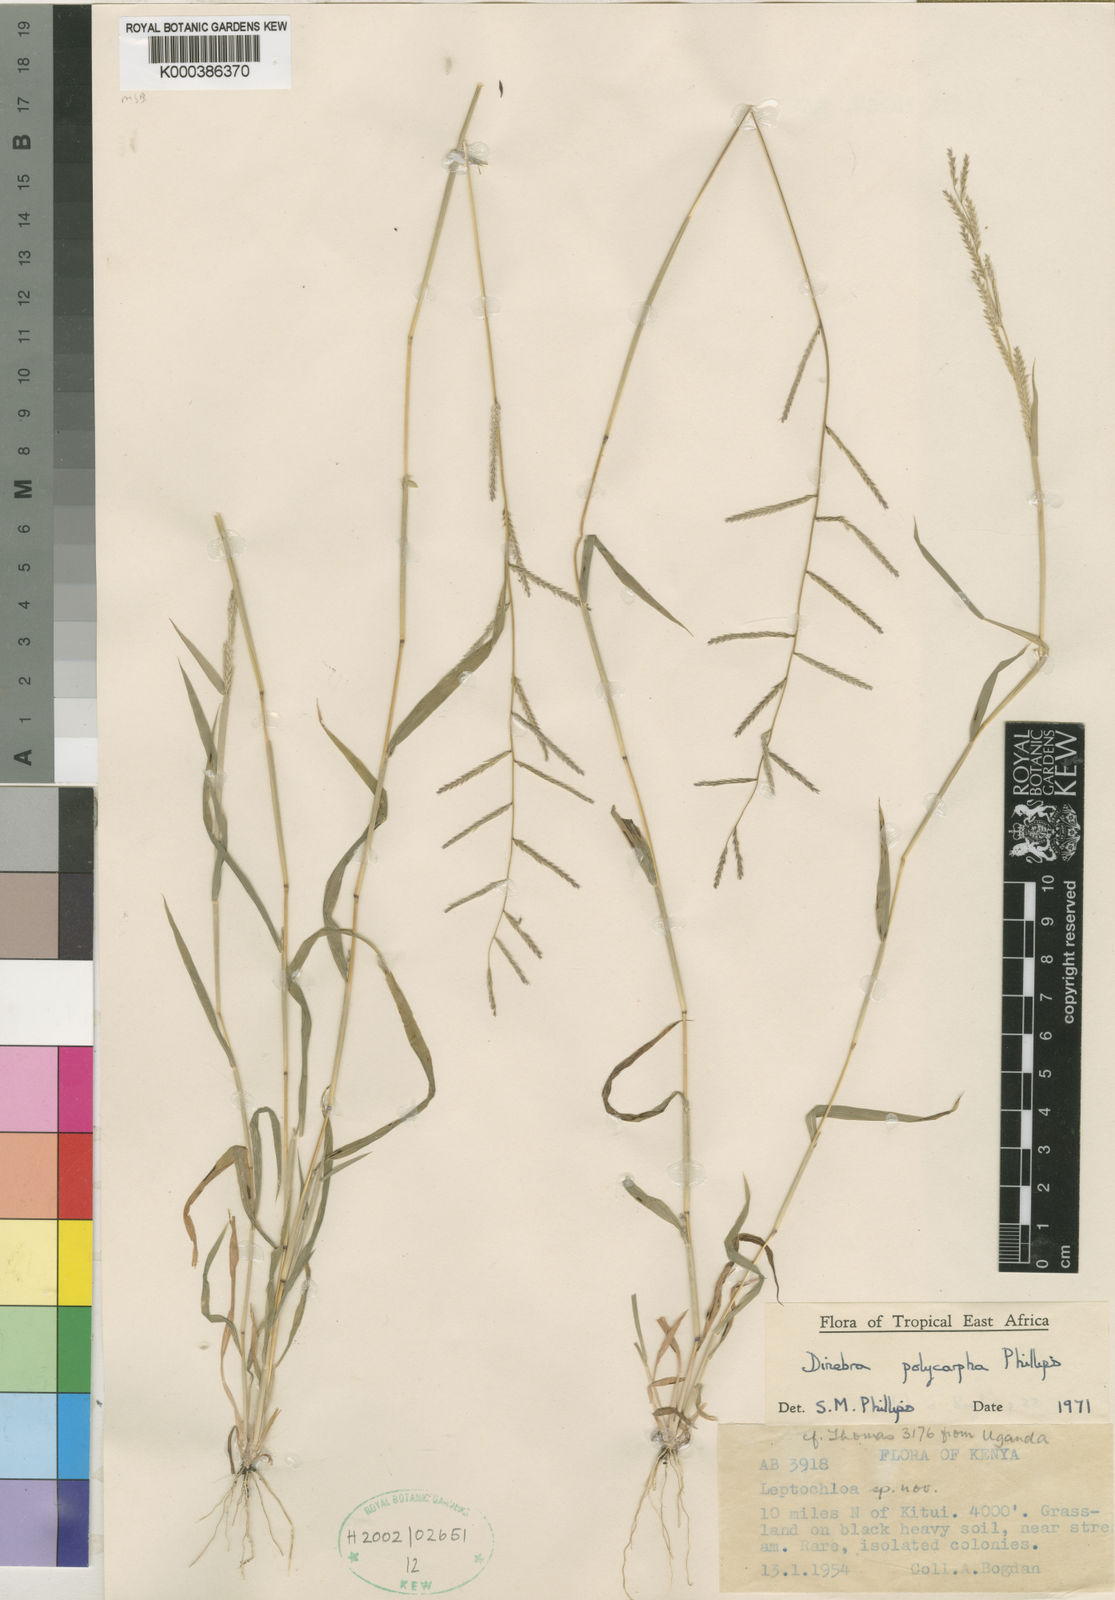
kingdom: Plantae
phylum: Tracheophyta
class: Liliopsida
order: Poales
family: Poaceae
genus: Dinebra
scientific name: Dinebra
